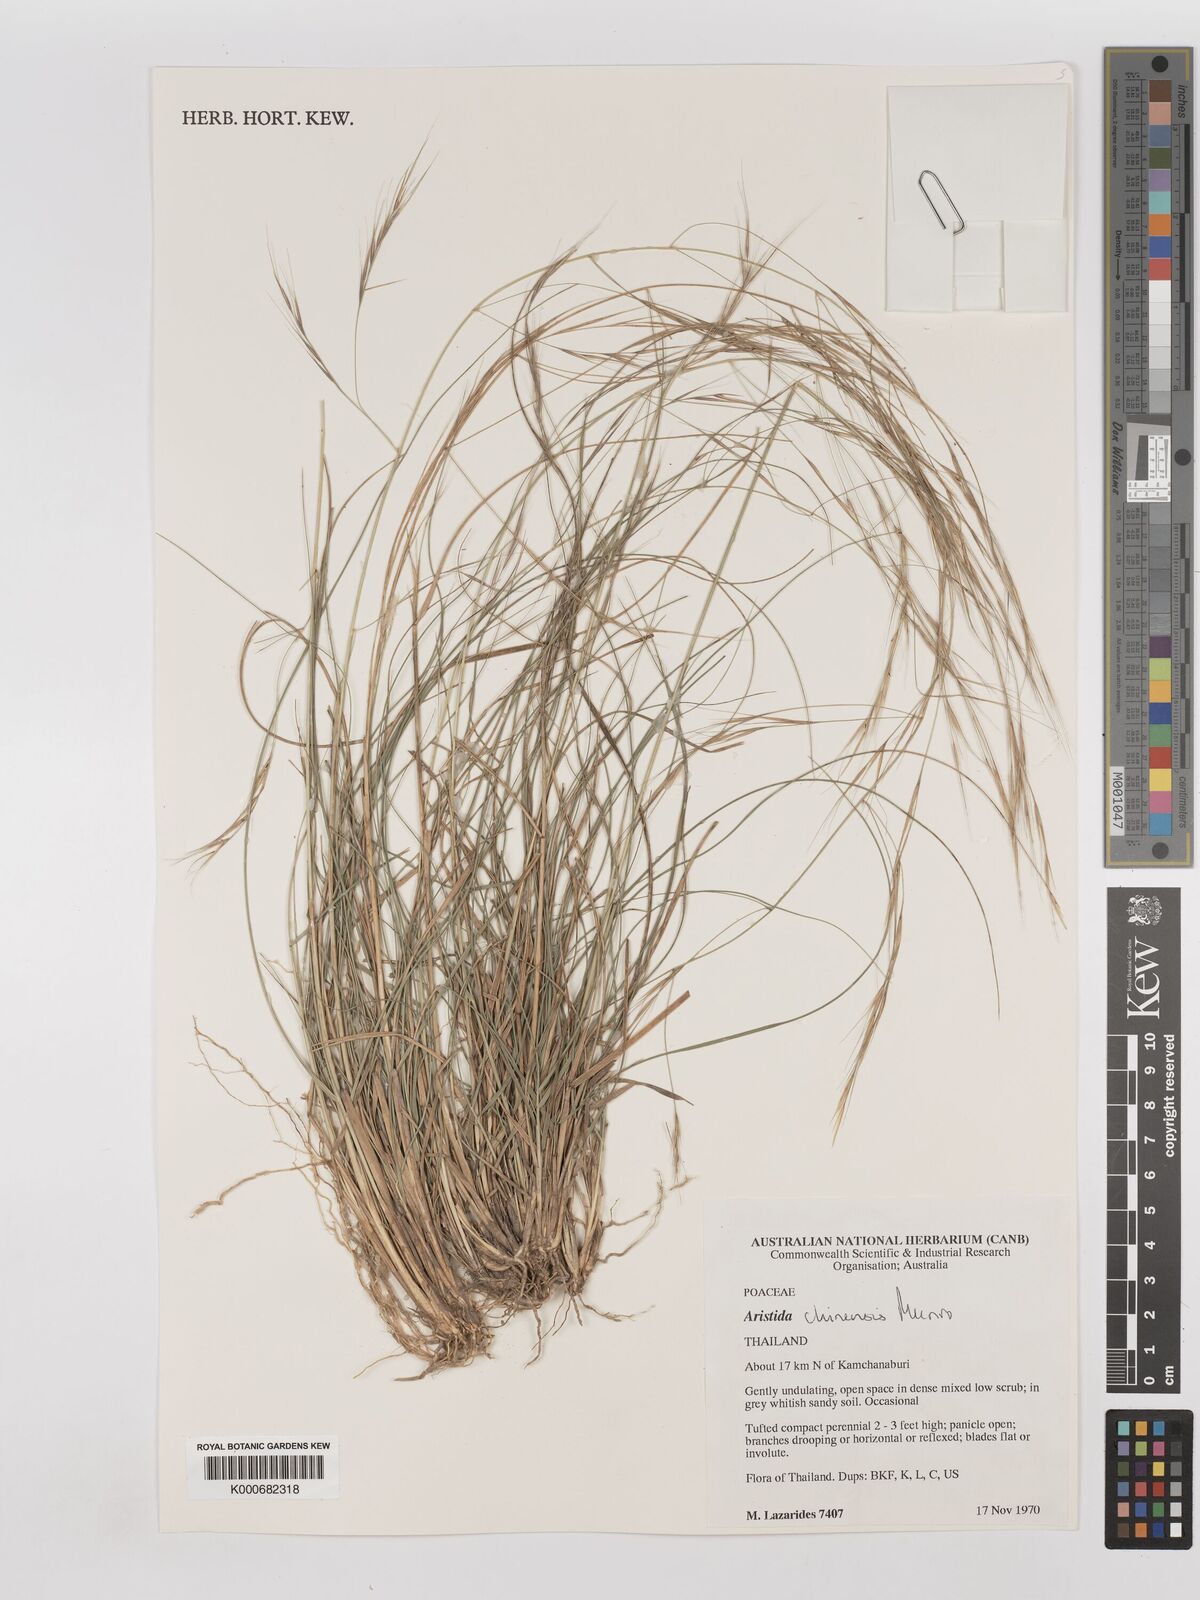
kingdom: Plantae
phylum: Tracheophyta
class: Liliopsida
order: Poales
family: Poaceae
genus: Aristida
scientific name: Aristida culionensis
